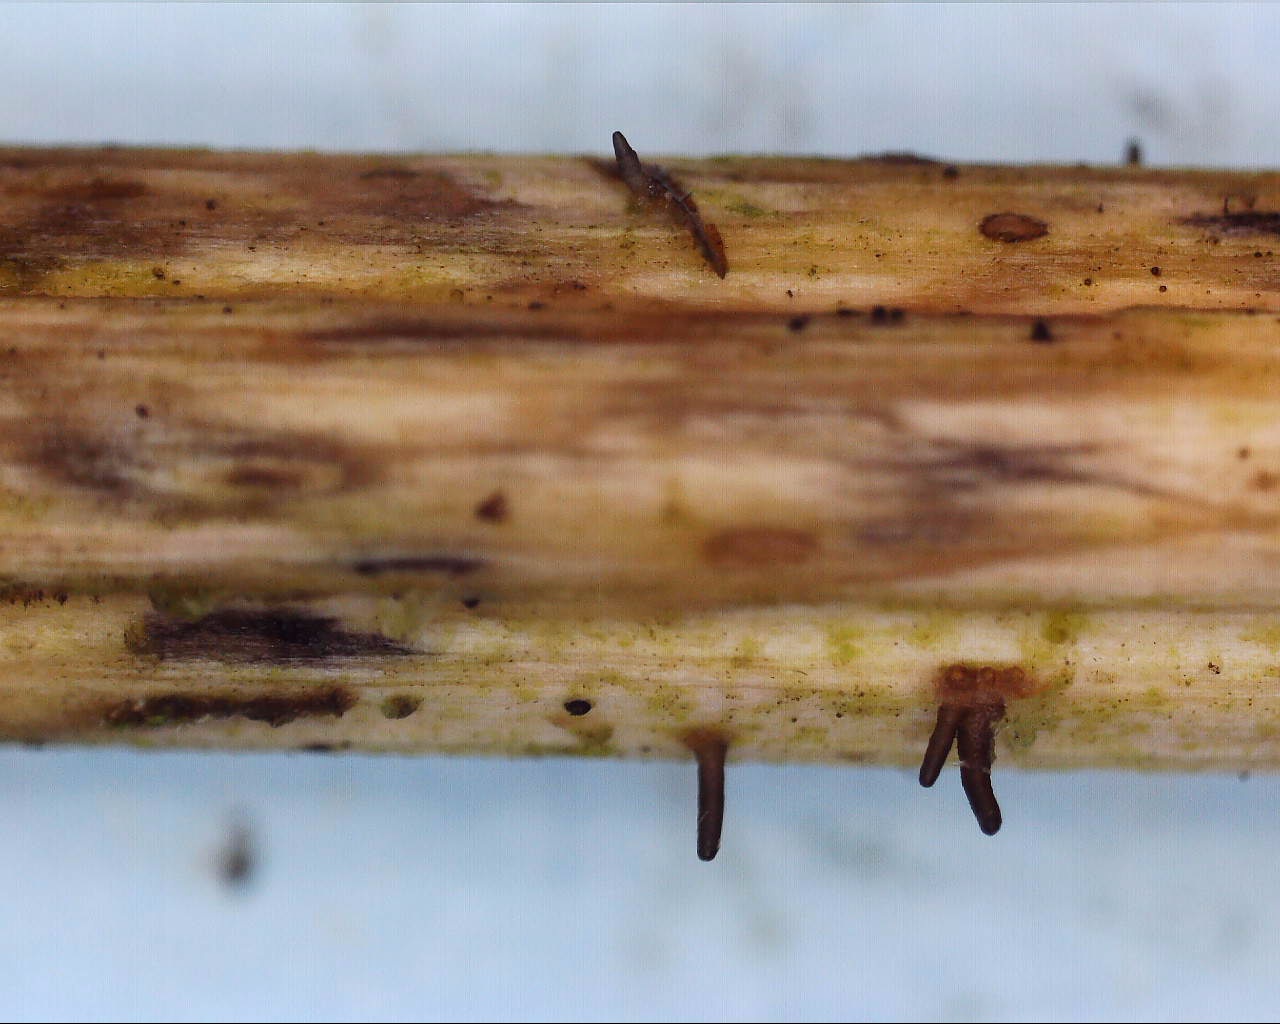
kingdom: Fungi
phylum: Ascomycota
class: Dothideomycetes
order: Acrospermales
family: Acrospermaceae
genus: Acrospermum
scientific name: Acrospermum compressum
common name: nælde-stængeltunge
